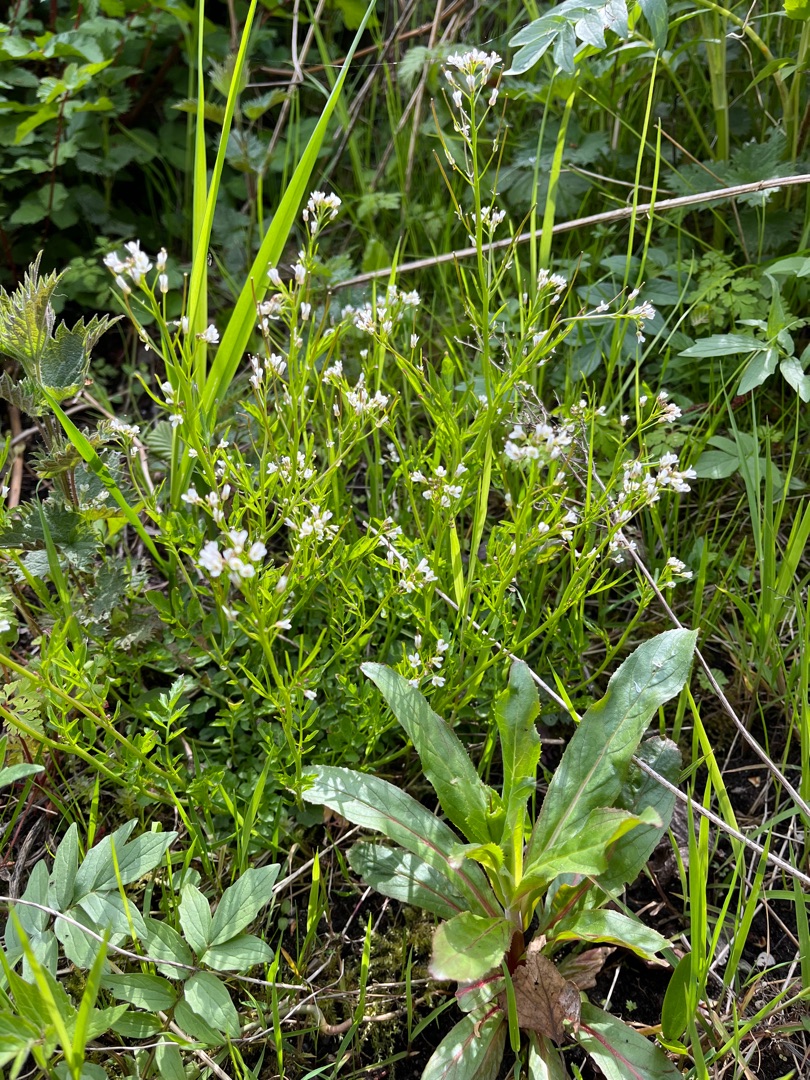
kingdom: Plantae
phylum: Tracheophyta
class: Magnoliopsida
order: Brassicales
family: Brassicaceae
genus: Cardamine
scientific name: Cardamine flexuosa
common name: Skov-springklap
